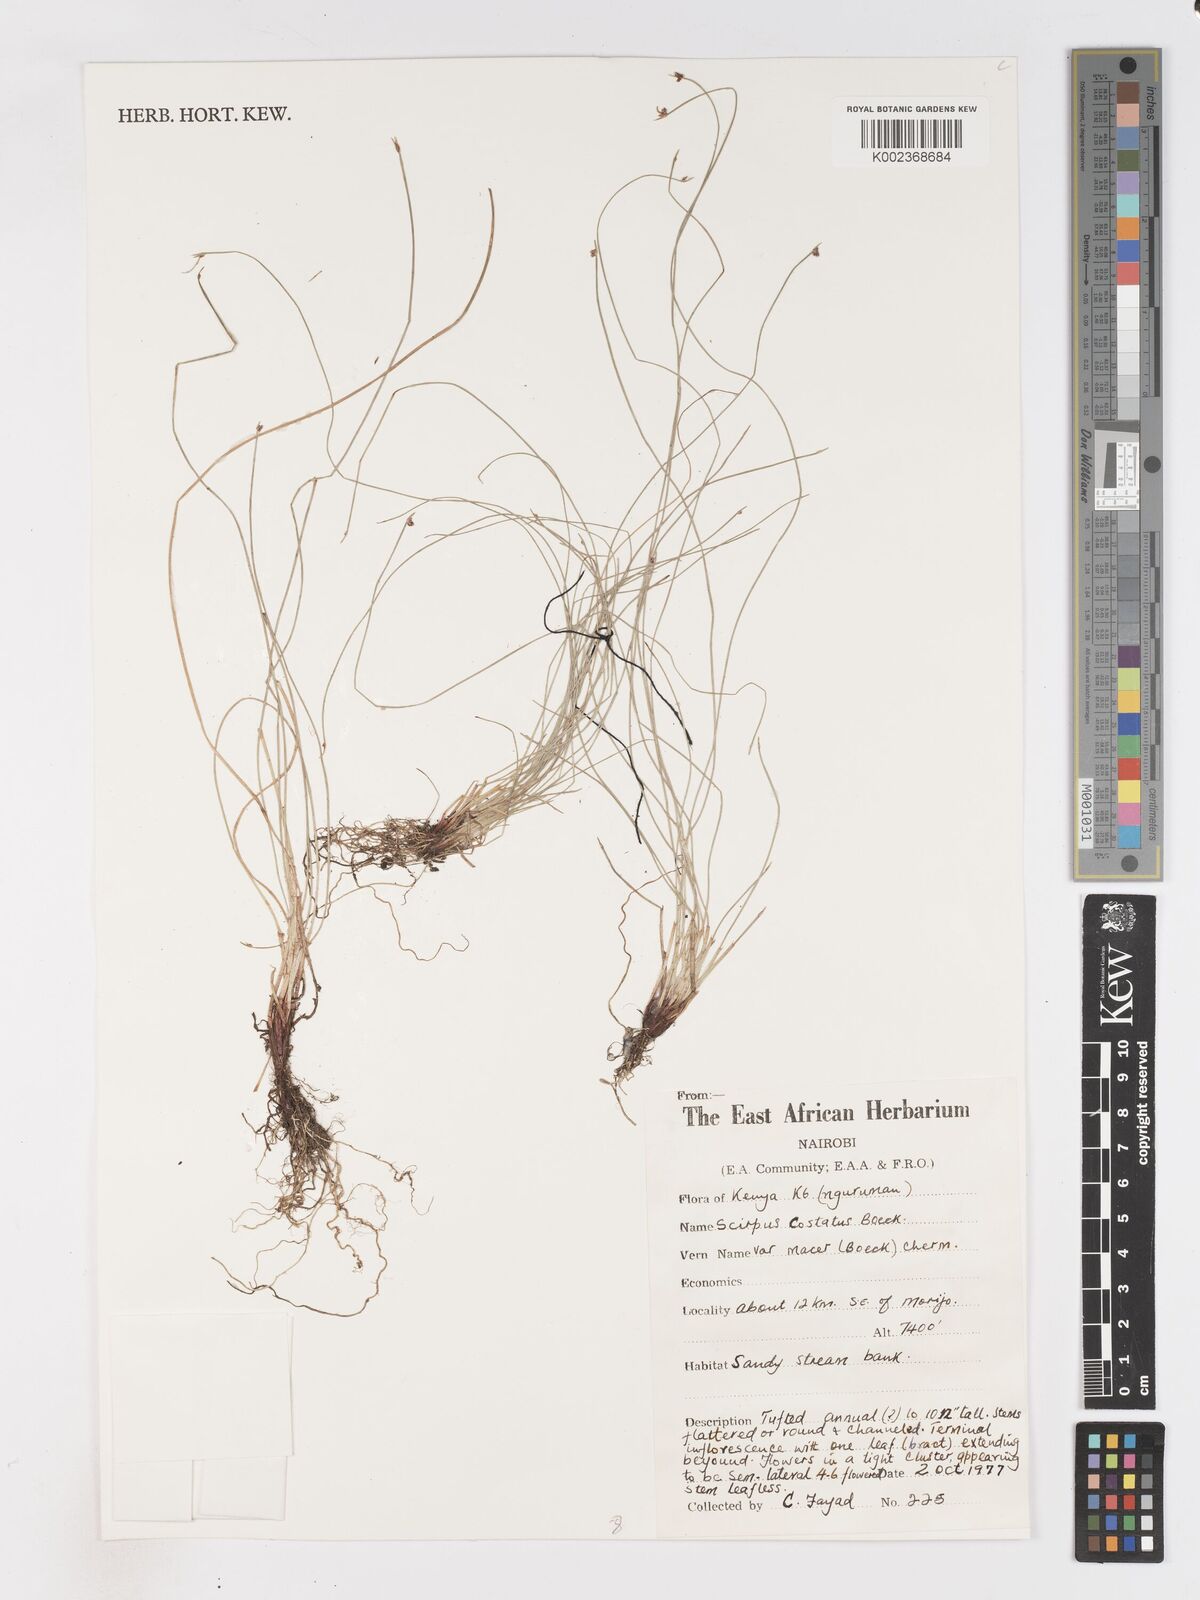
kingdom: Plantae
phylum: Tracheophyta
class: Liliopsida
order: Poales
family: Cyperaceae
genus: Isolepis
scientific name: Isolepis costata
